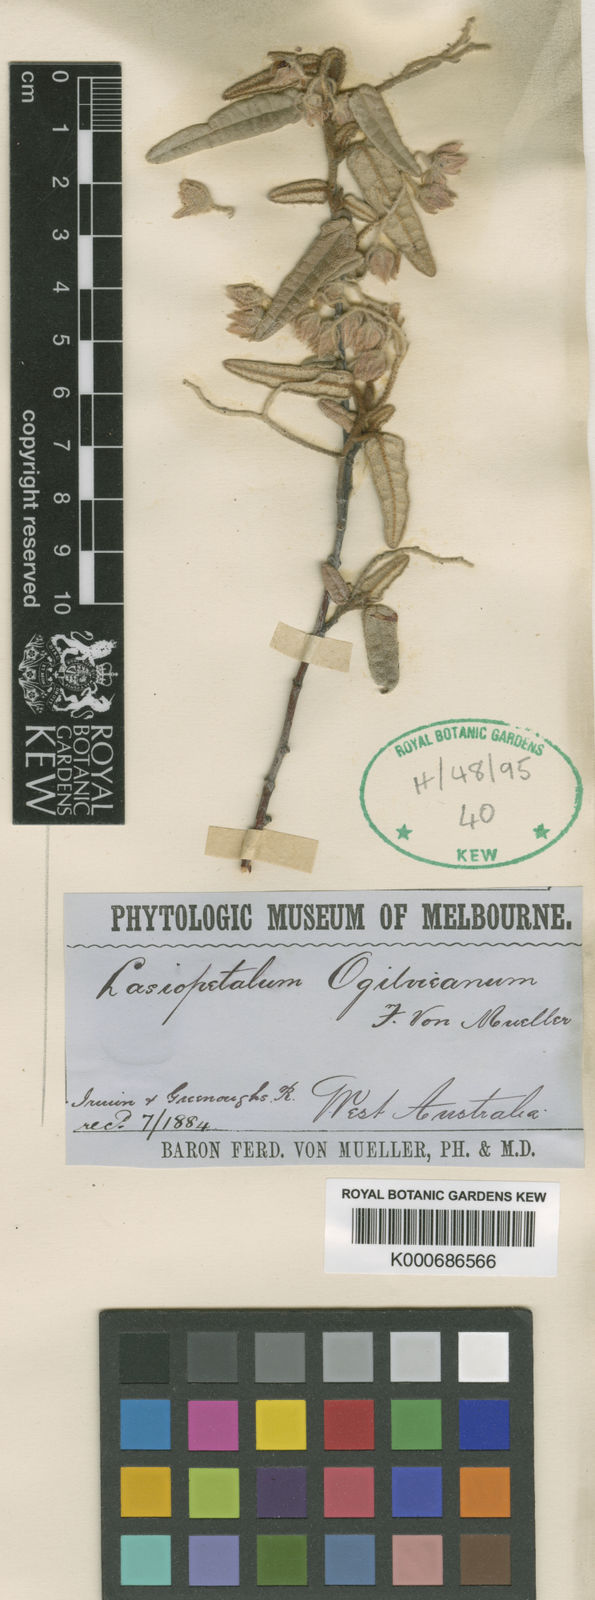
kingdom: Plantae
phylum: Tracheophyta
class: Magnoliopsida
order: Malvales
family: Malvaceae
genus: Lasiopetalum
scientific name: Lasiopetalum ogilvieanum
